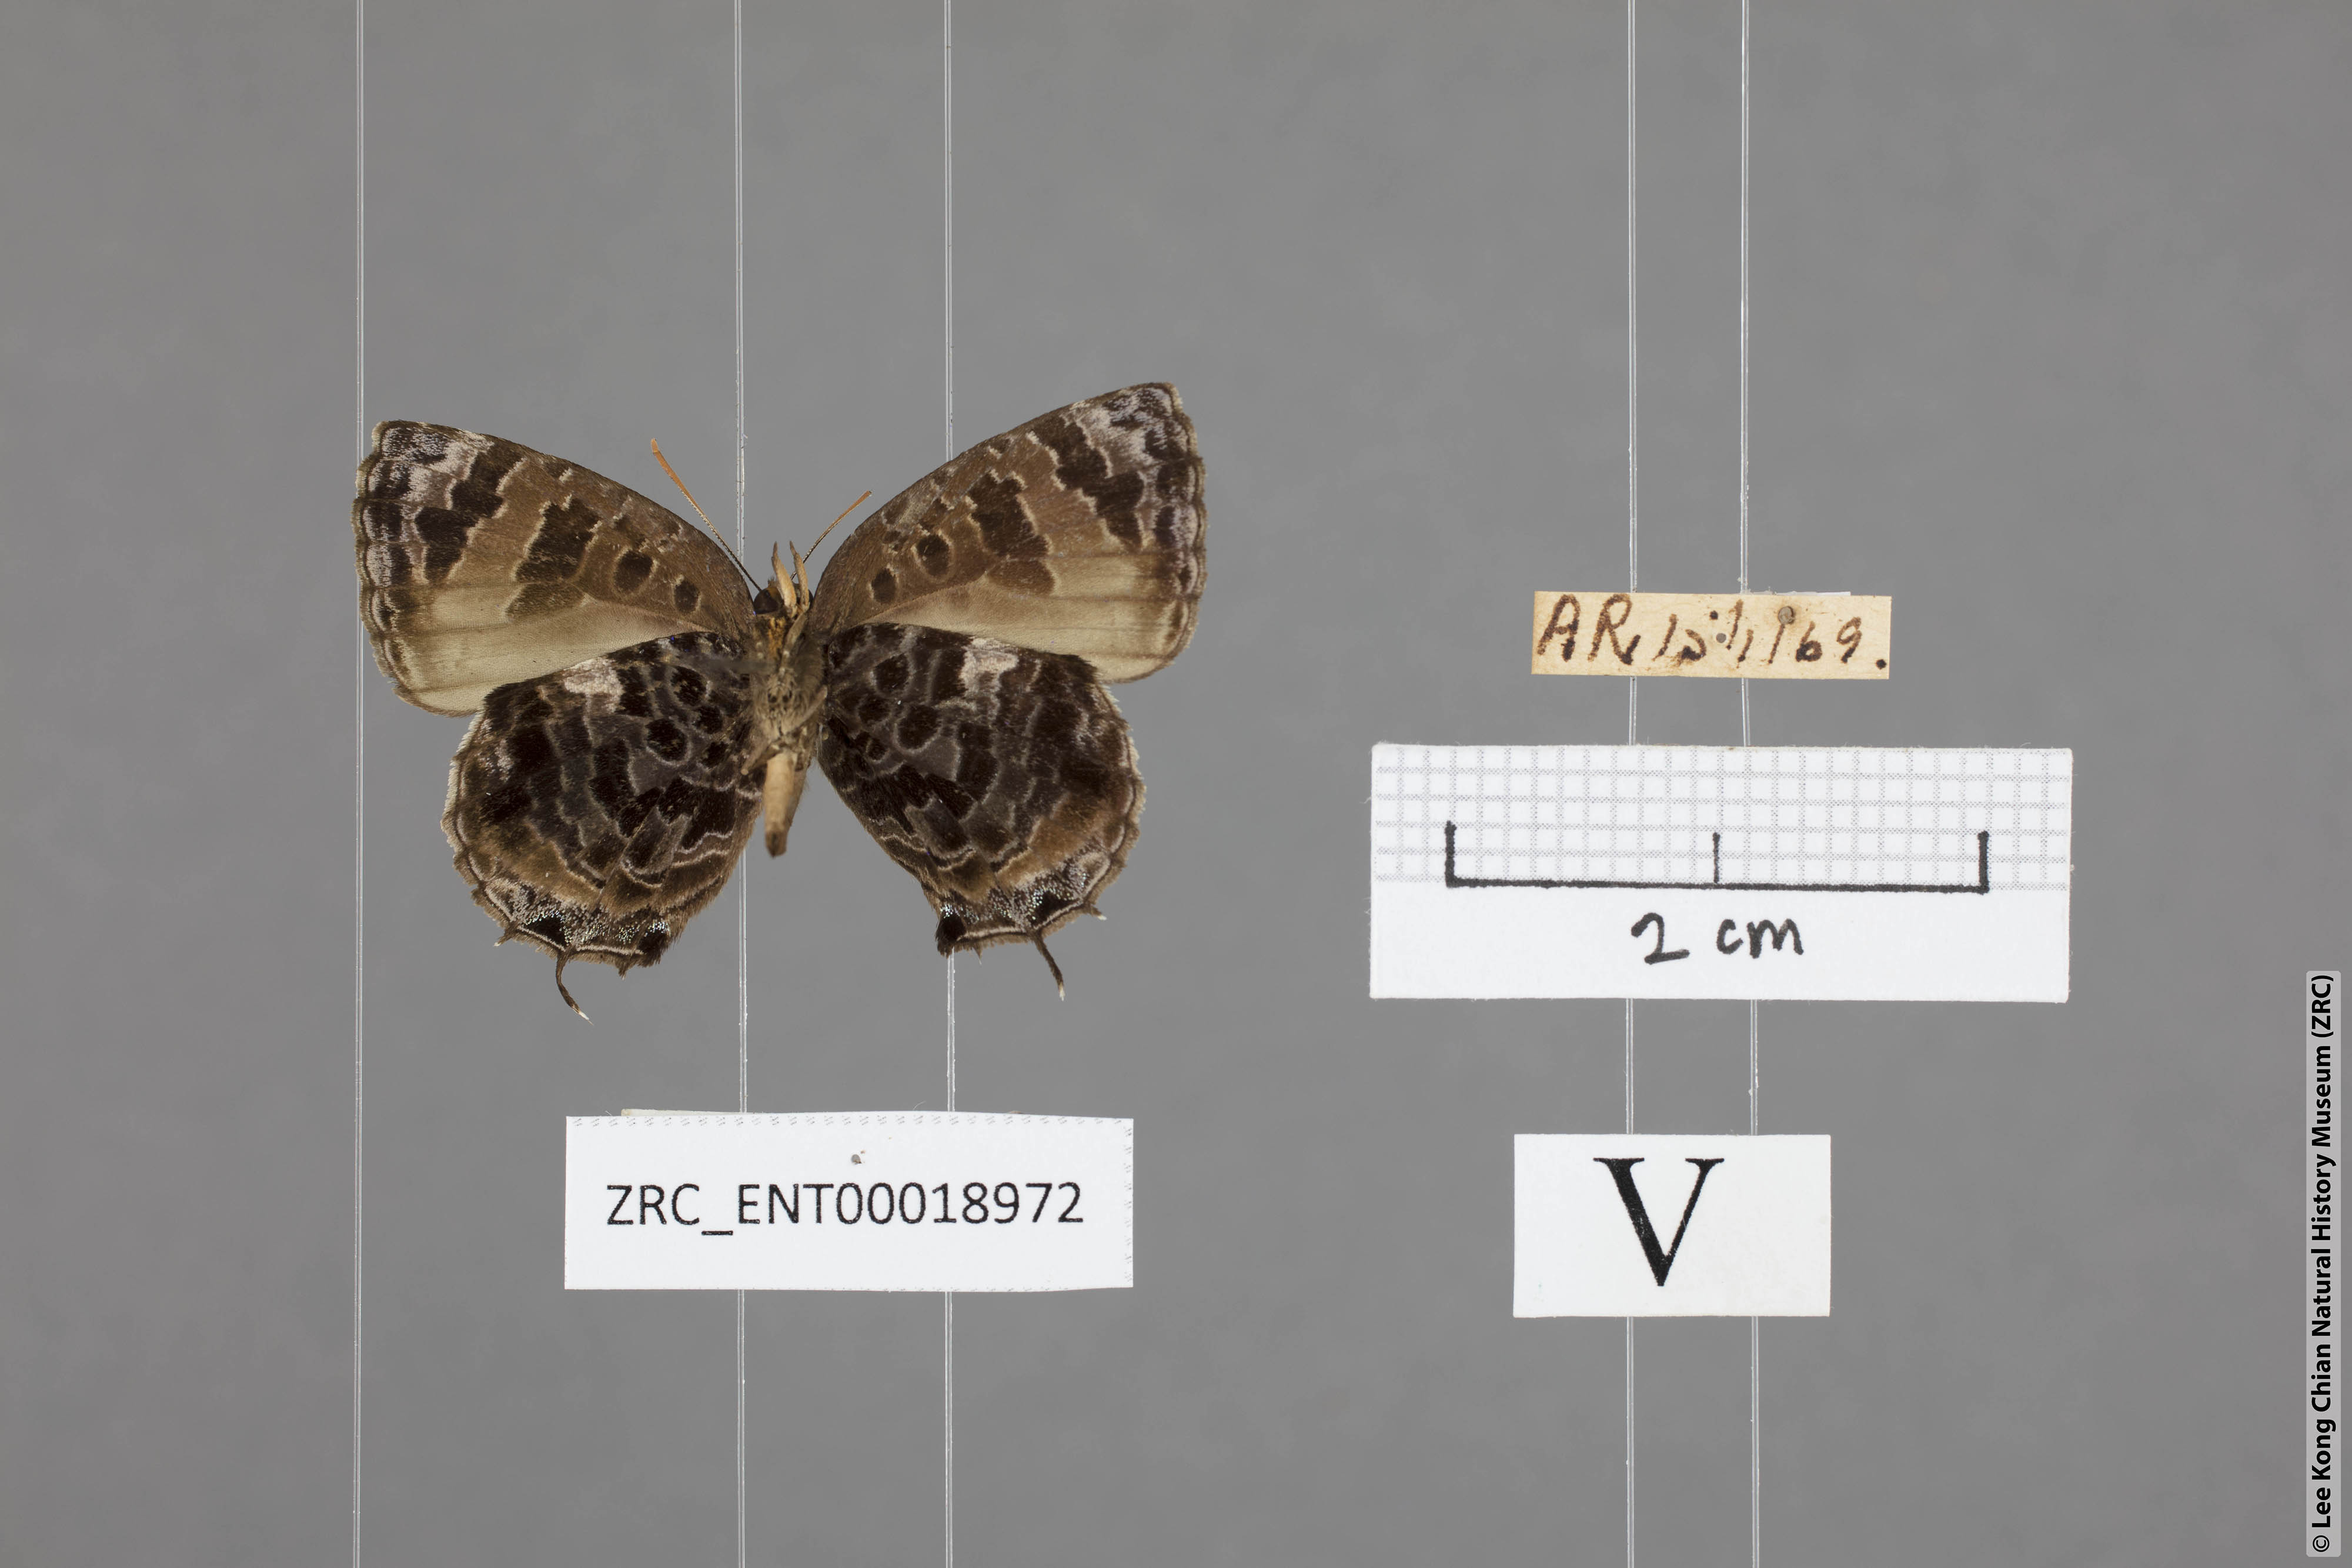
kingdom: Animalia
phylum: Arthropoda
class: Insecta
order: Lepidoptera
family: Lycaenidae
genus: Arhopala
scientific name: Arhopala abseus
